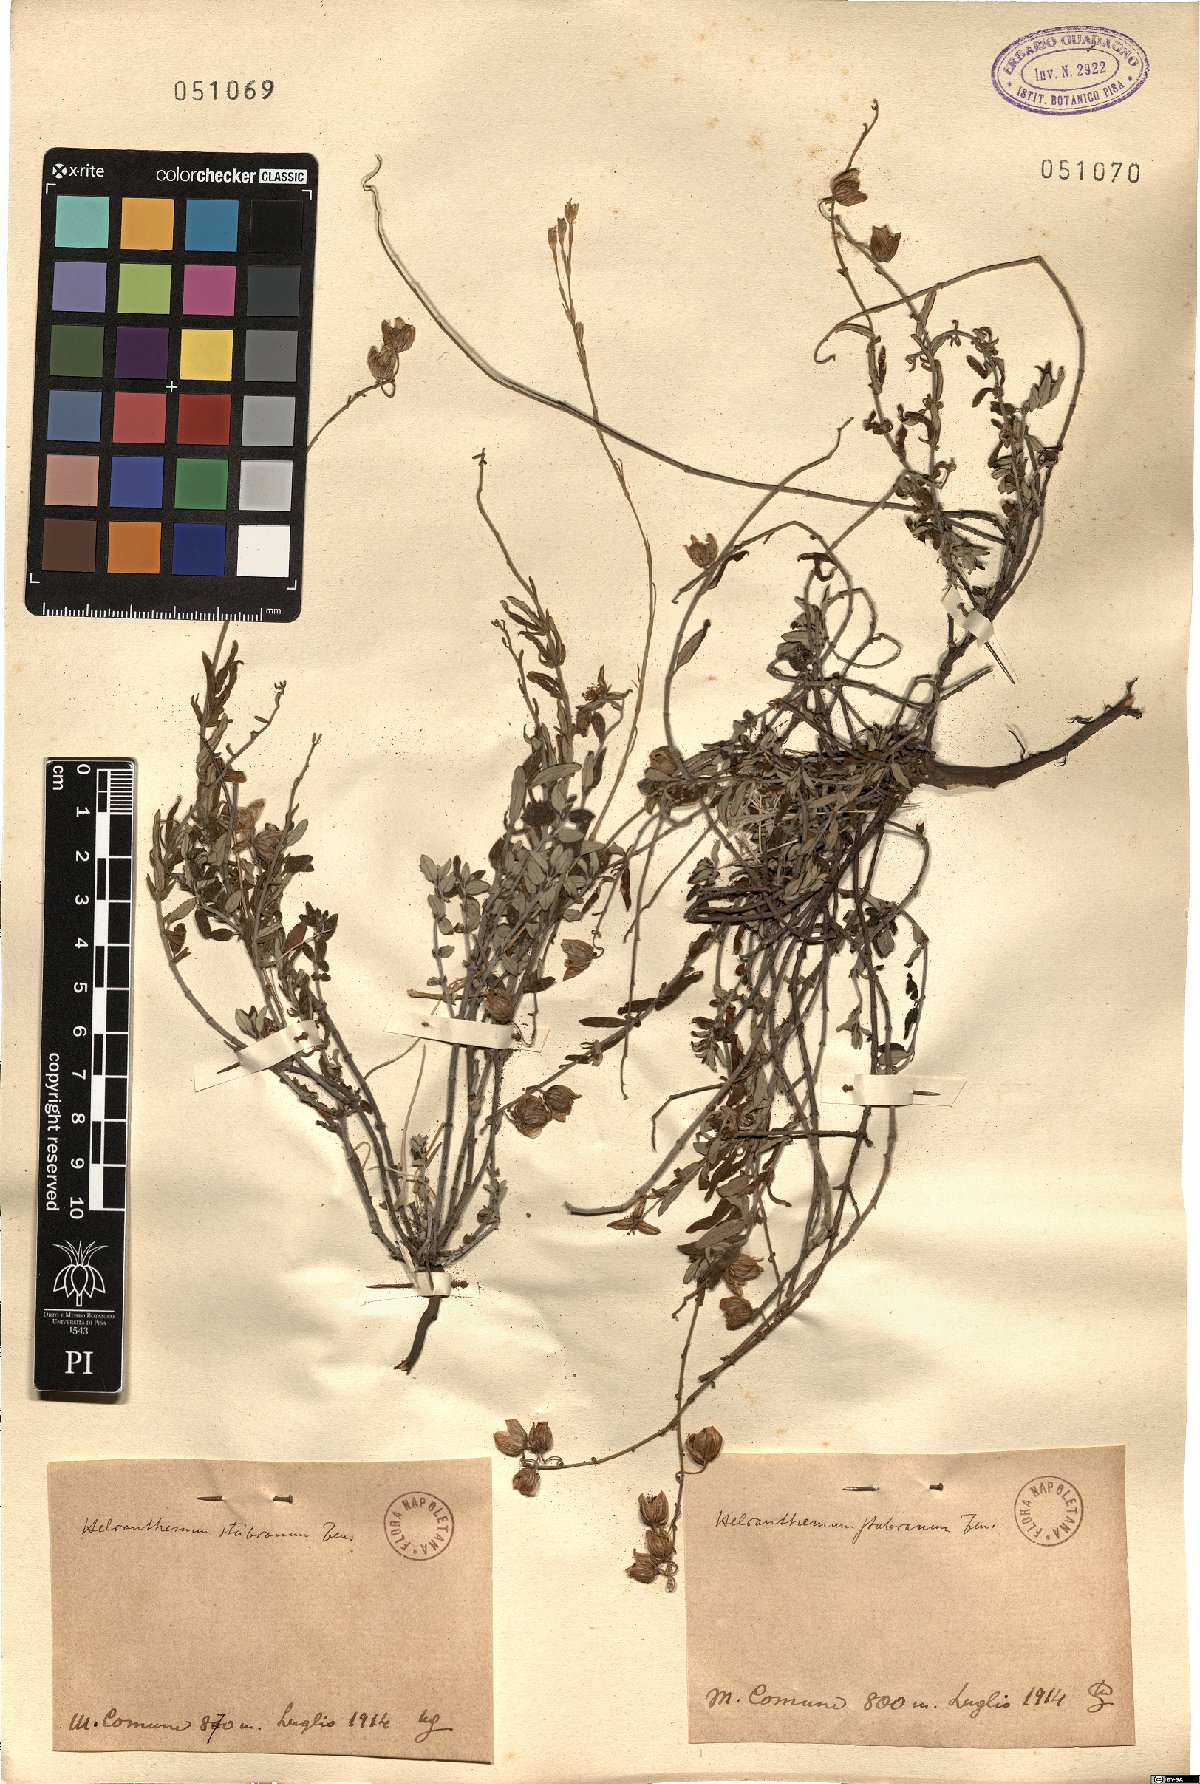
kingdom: Plantae
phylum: Tracheophyta
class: Magnoliopsida
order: Malvales
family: Cistaceae
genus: Helianthemum
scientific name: Helianthemum croceum
